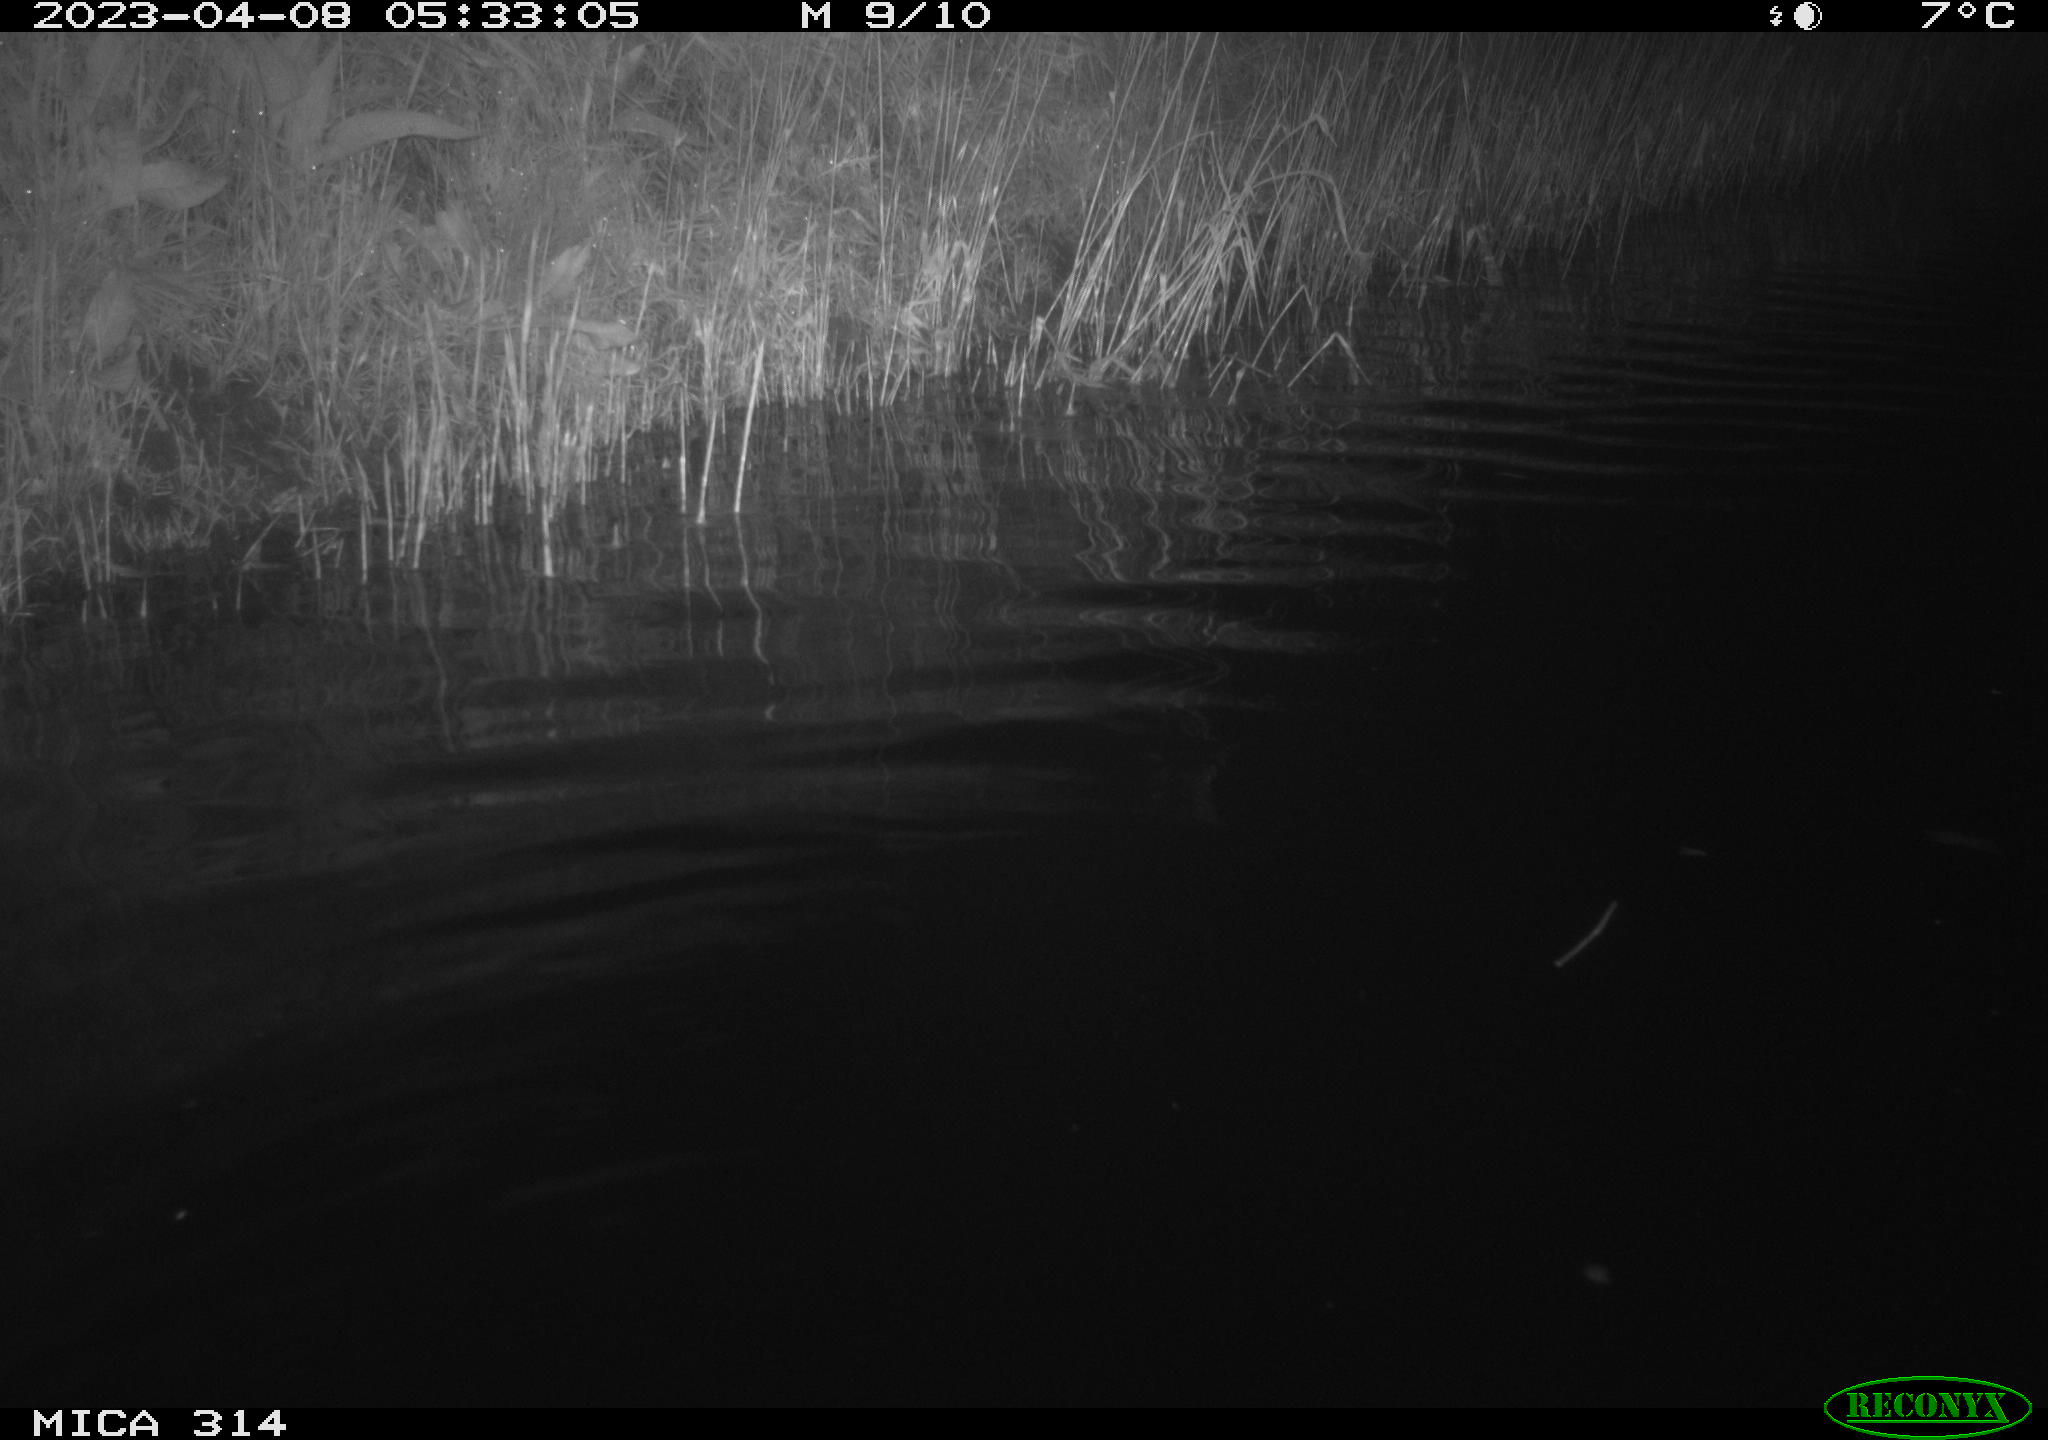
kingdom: Animalia
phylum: Chordata
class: Aves
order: Anseriformes
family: Anatidae
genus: Anas
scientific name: Anas
